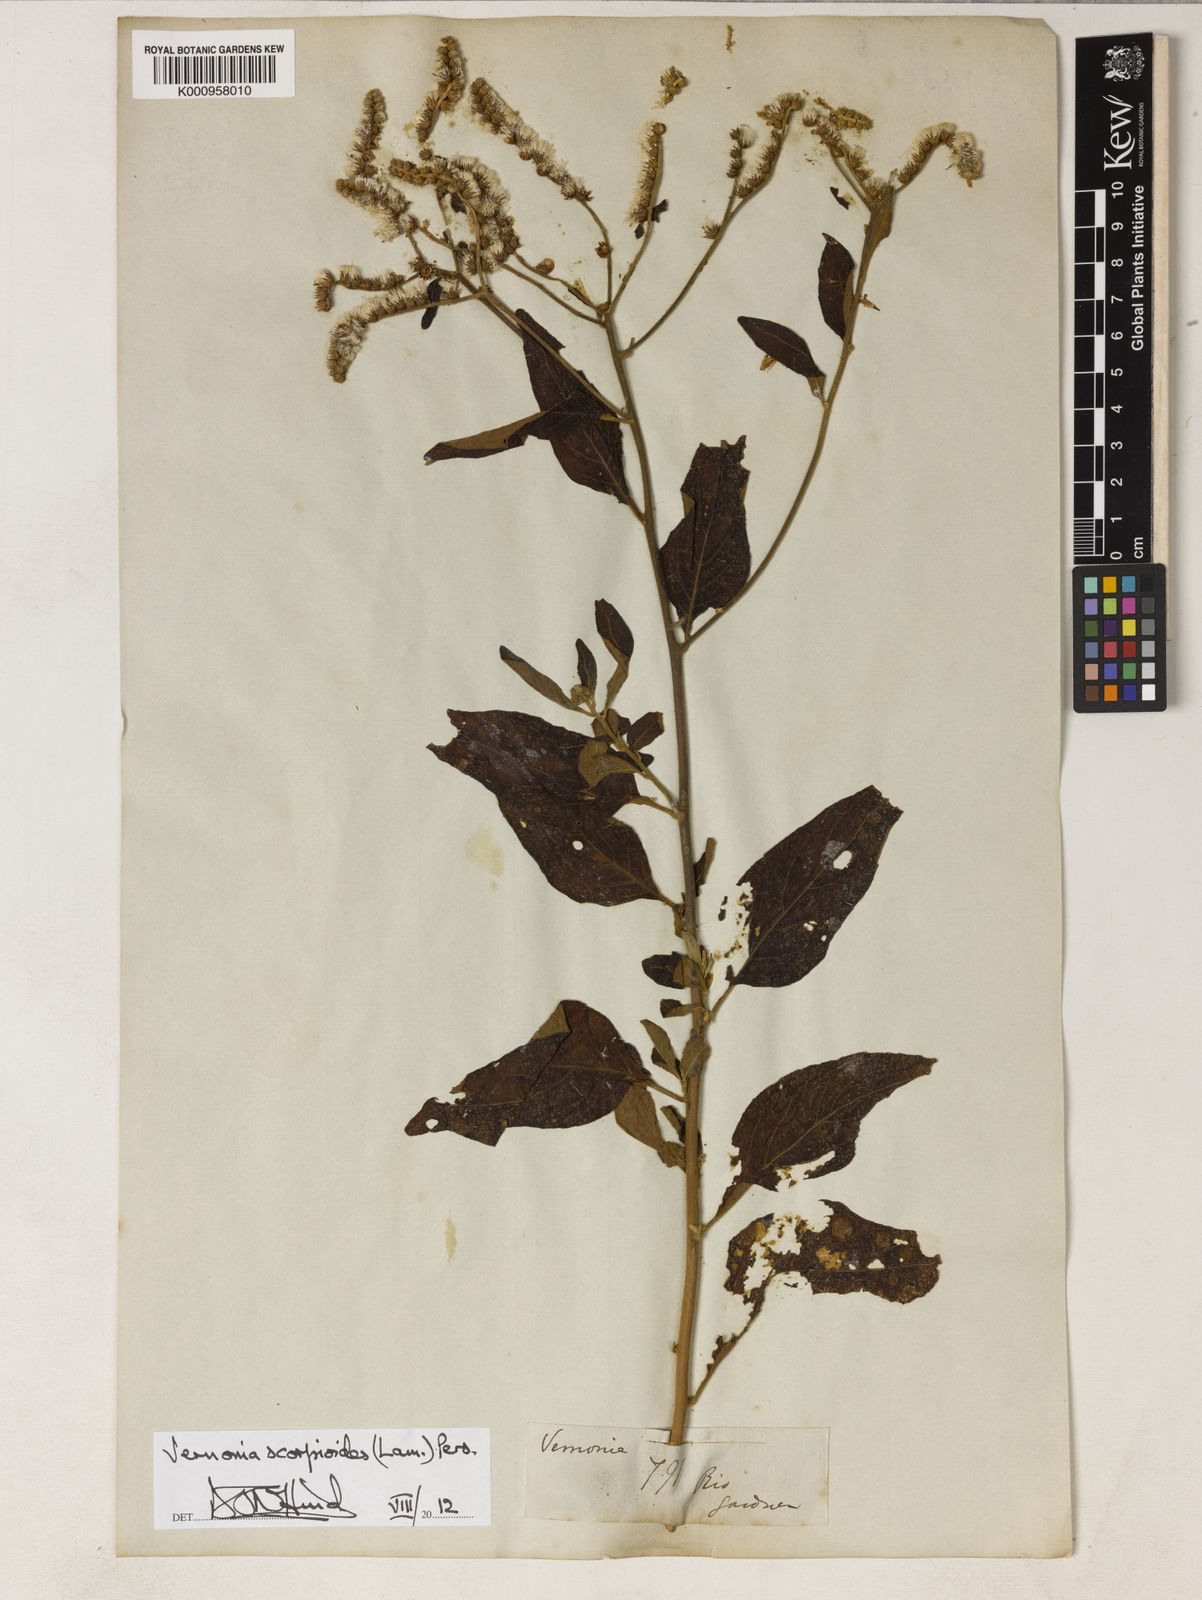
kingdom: Plantae
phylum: Tracheophyta
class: Magnoliopsida
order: Asterales
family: Asteraceae
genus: Cyrtocymura
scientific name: Cyrtocymura scorpioides
